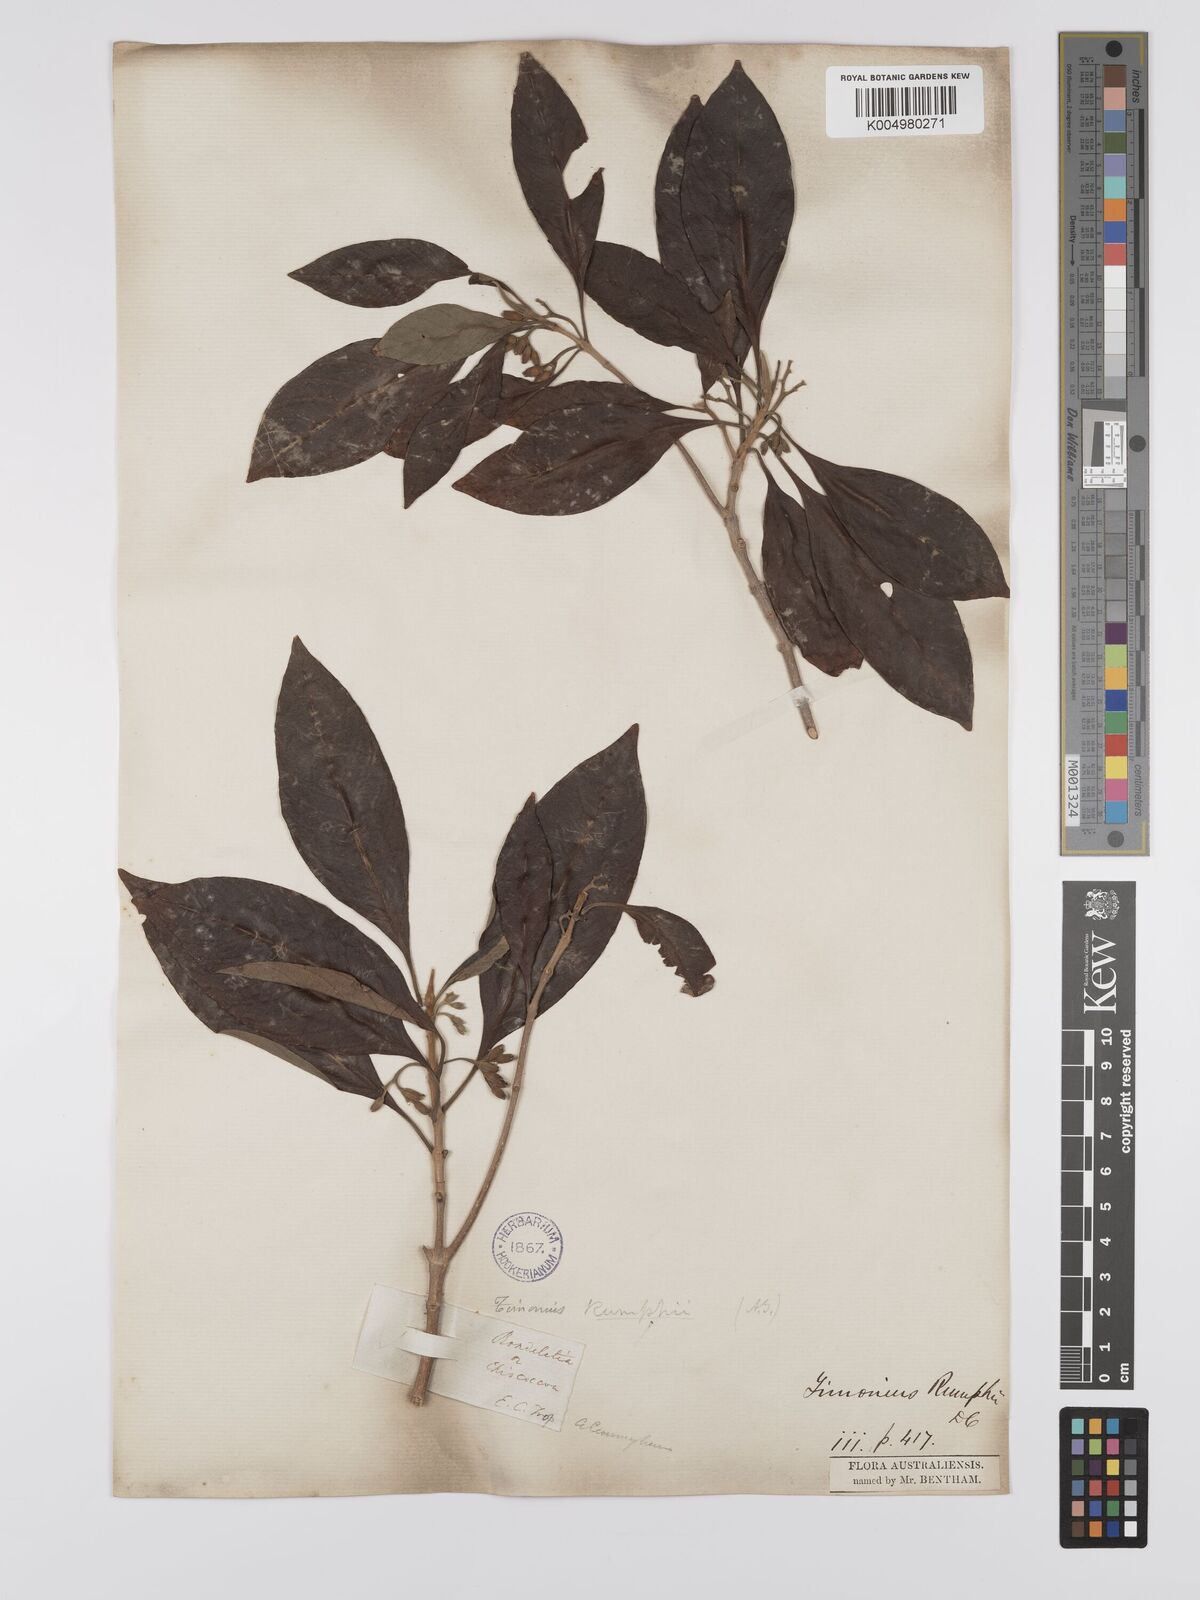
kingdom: Plantae
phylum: Tracheophyta
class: Magnoliopsida
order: Gentianales
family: Rubiaceae
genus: Timonius
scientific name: Timonius timon
